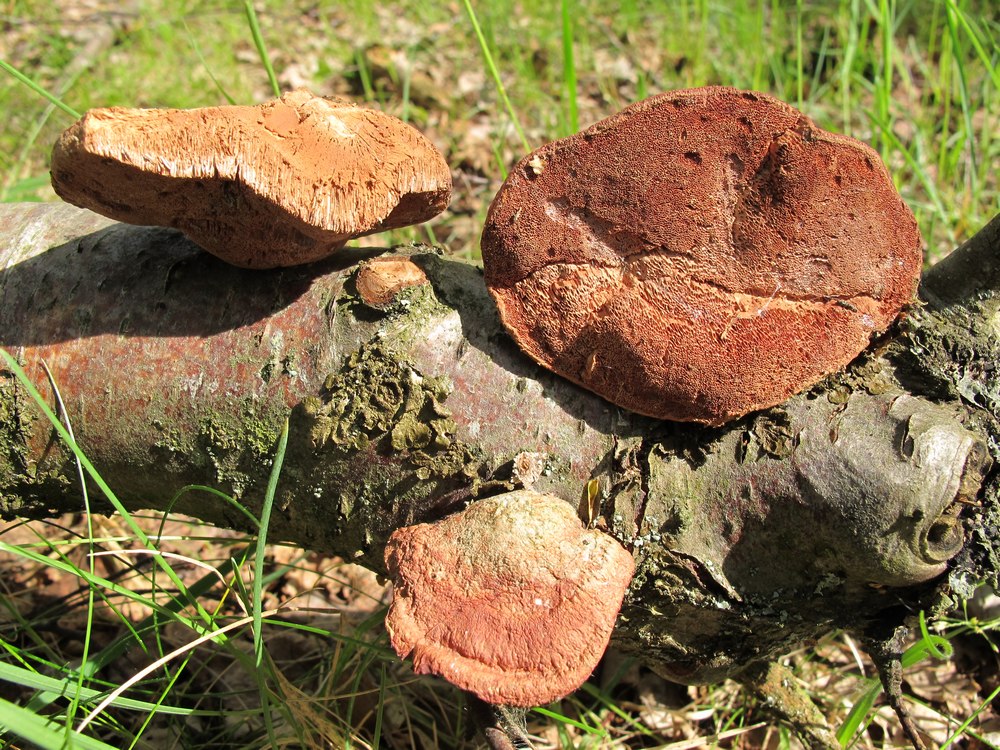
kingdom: Fungi
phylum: Basidiomycota
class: Agaricomycetes
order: Polyporales
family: Phanerochaetaceae
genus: Hapalopilus
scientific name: Hapalopilus rutilans
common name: rødlig okkerporesvamp
